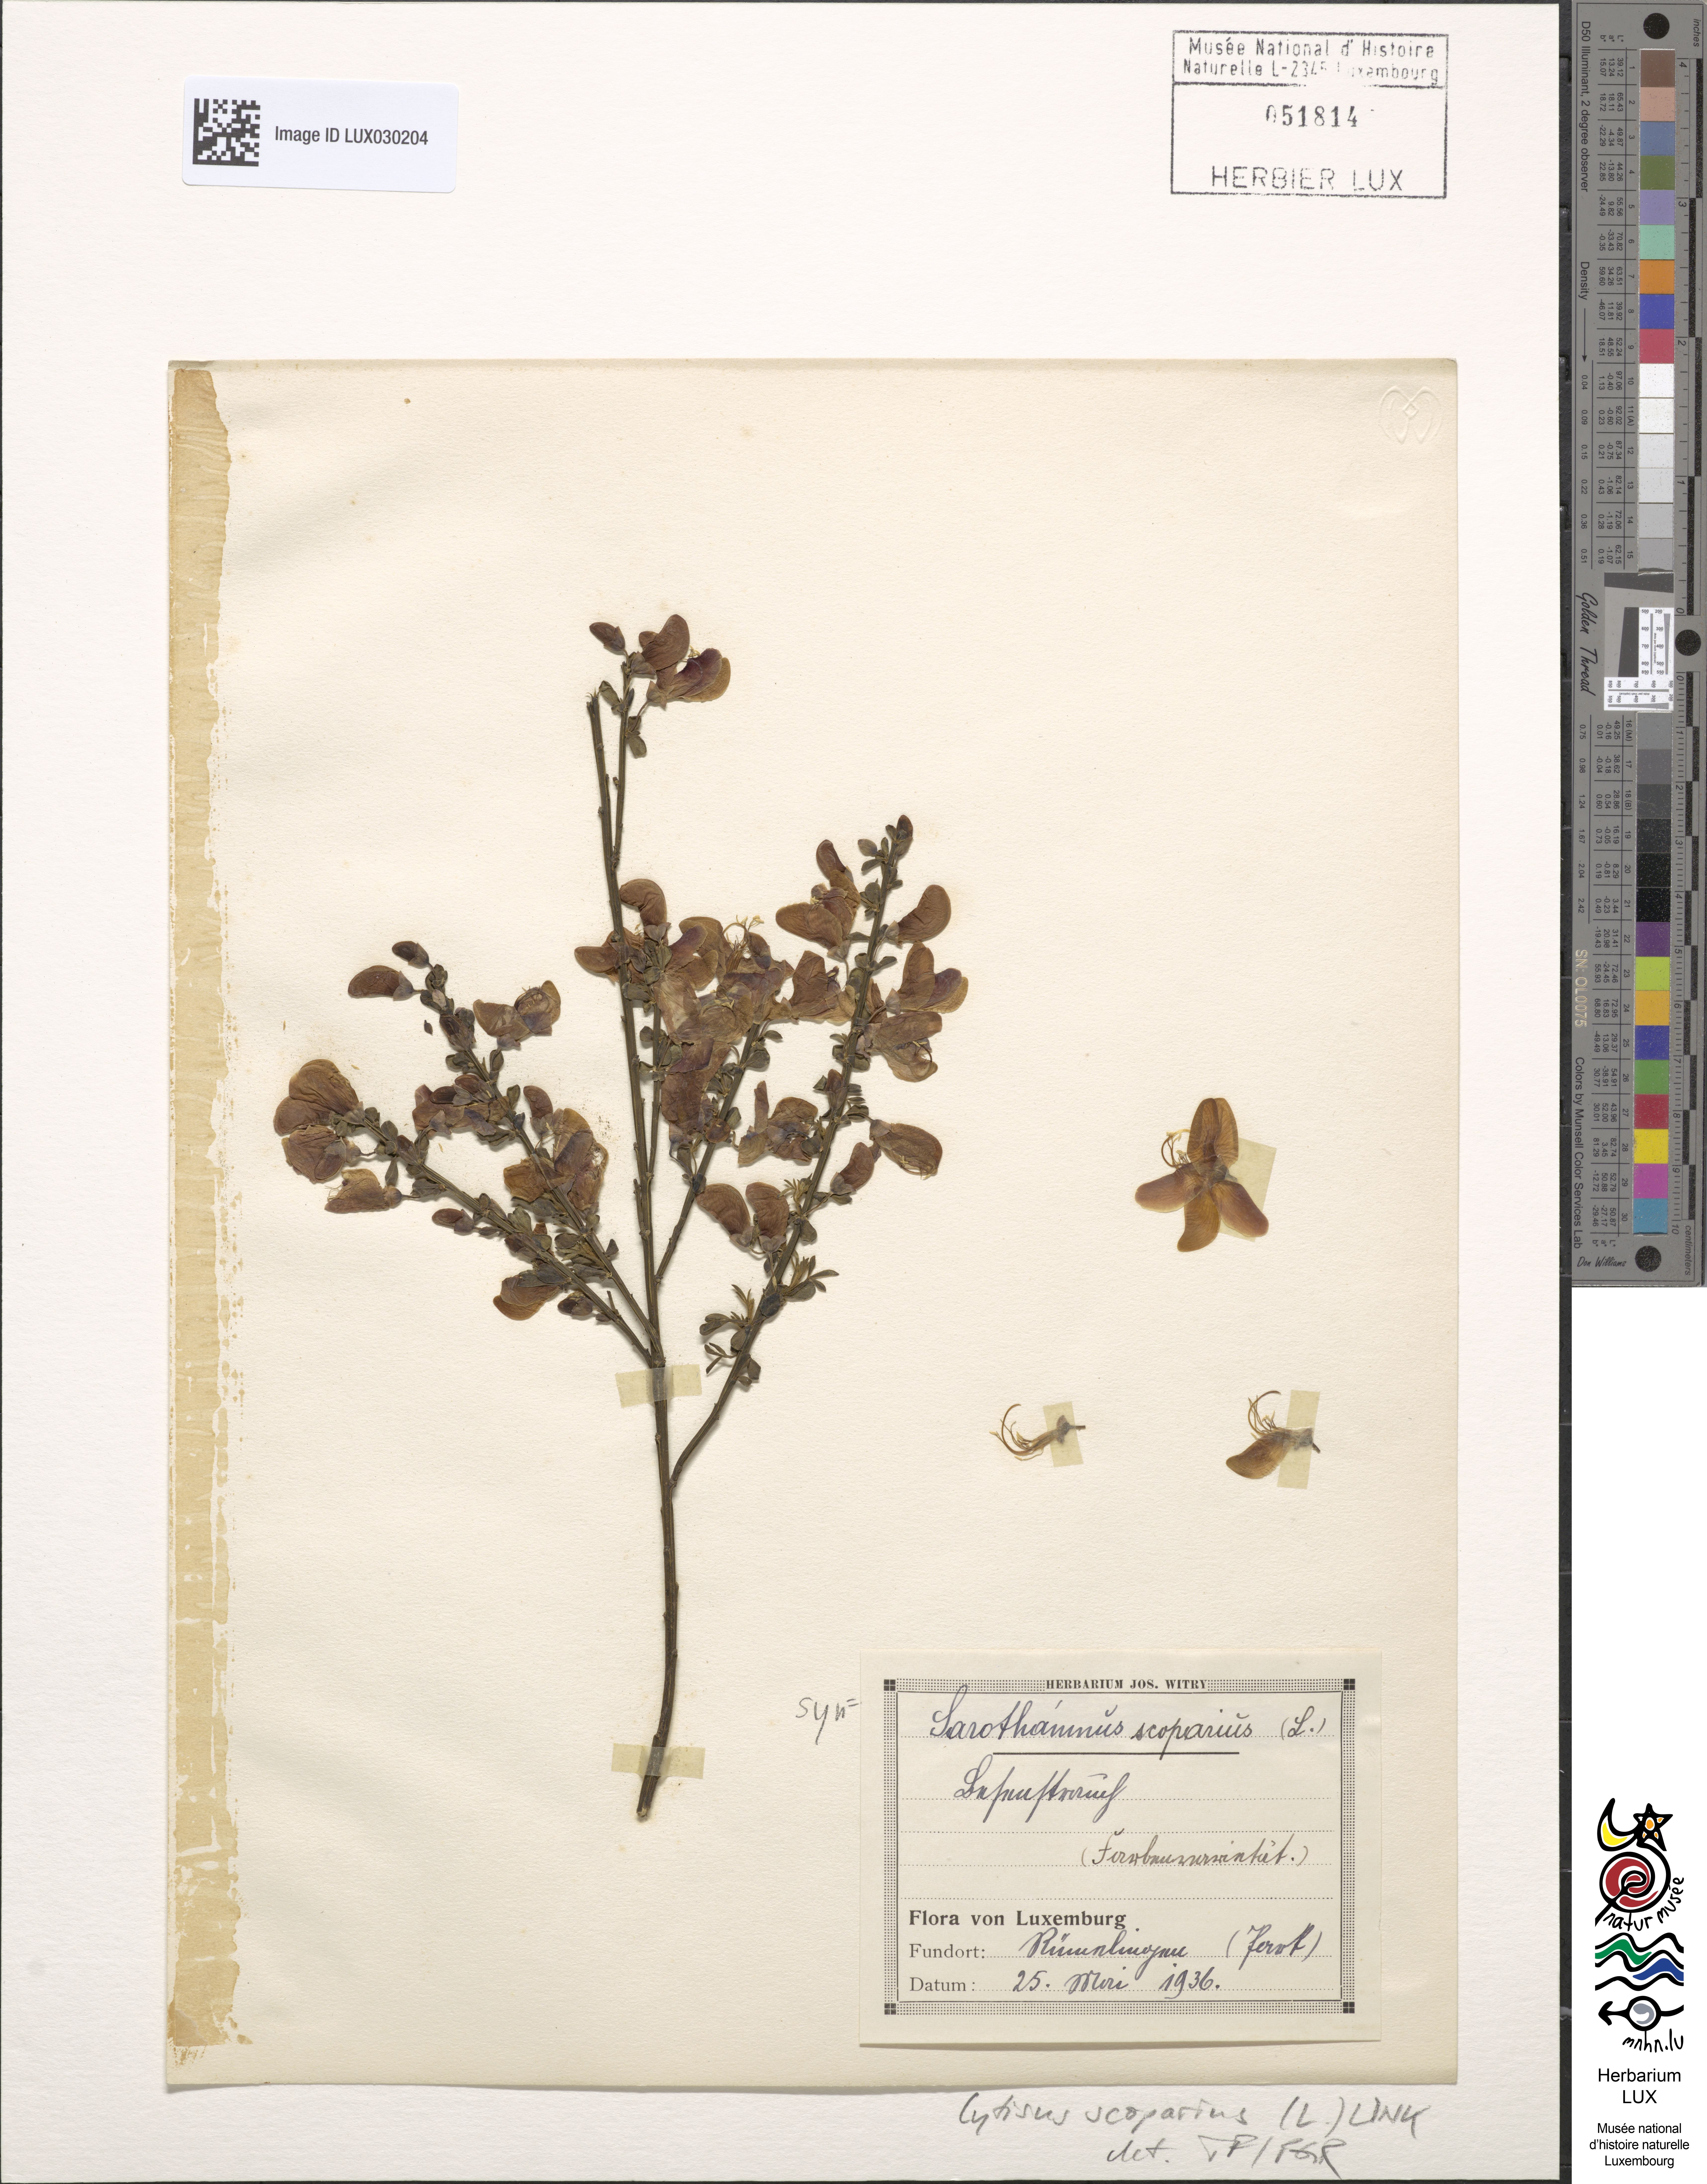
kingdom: Plantae
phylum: Tracheophyta
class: Magnoliopsida
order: Fabales
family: Fabaceae
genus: Cytisus
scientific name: Cytisus scoparius
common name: Scotch broom
